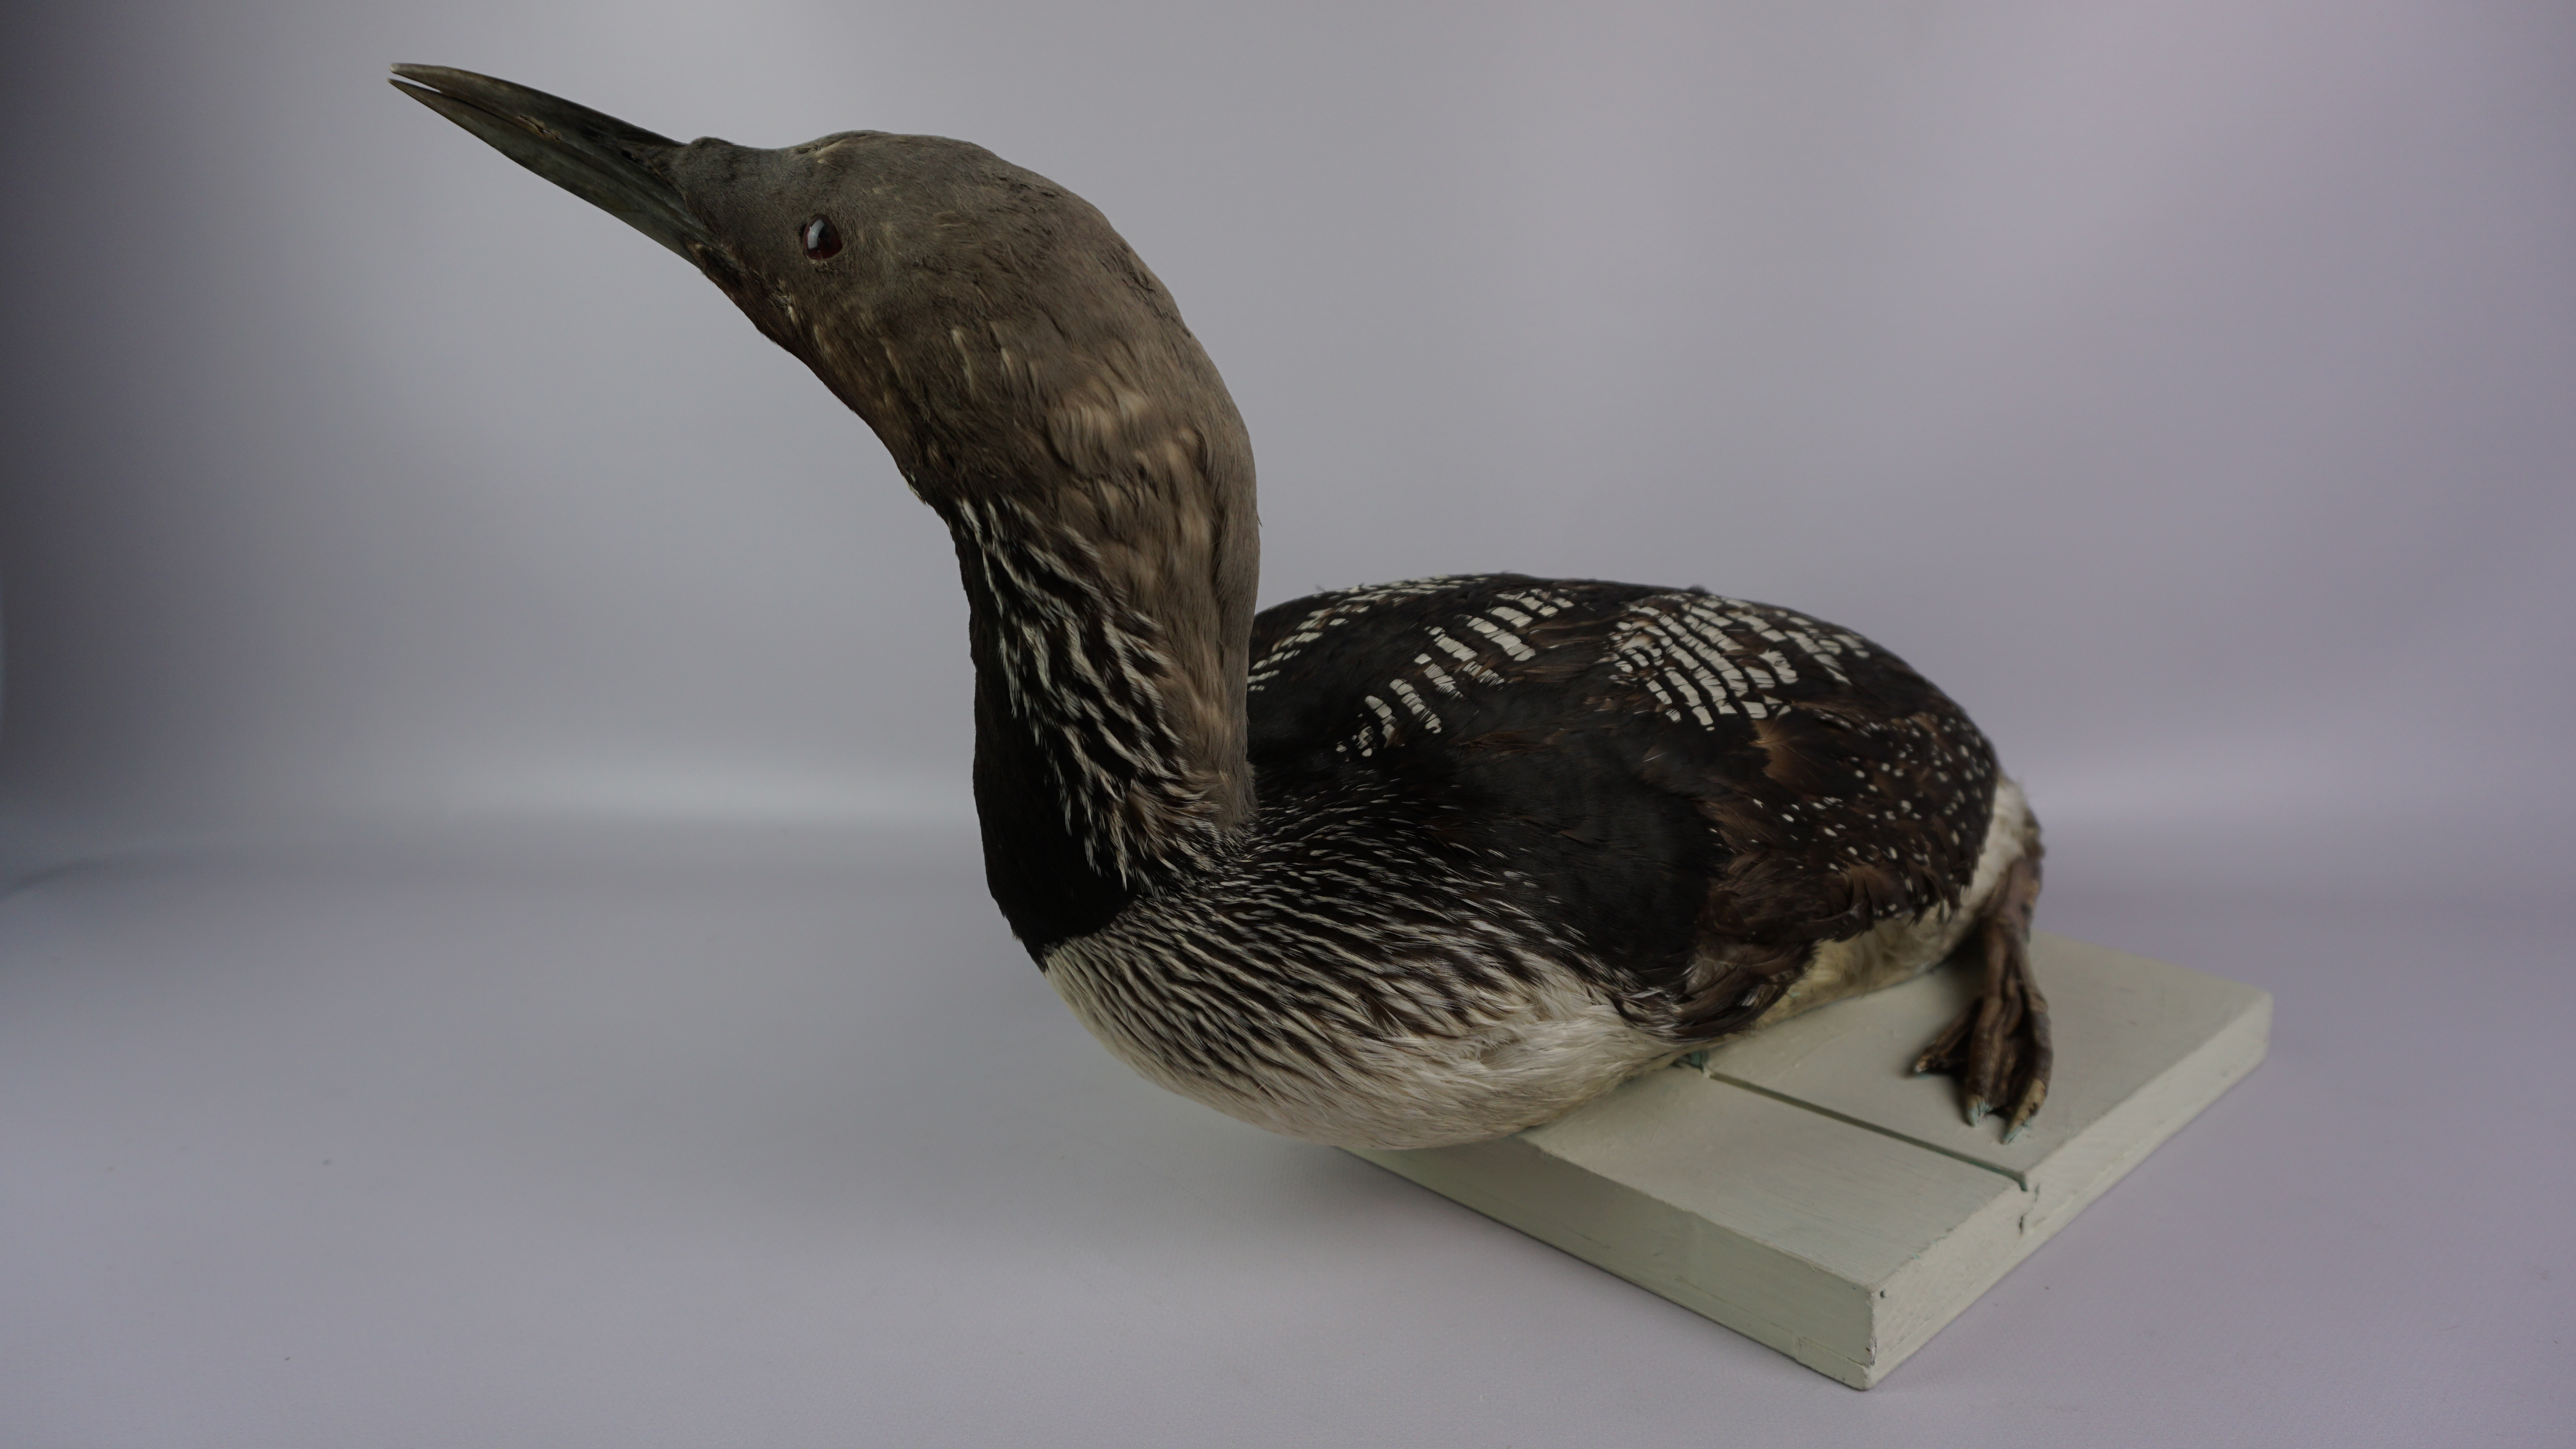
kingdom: Animalia
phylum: Chordata
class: Aves
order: Gaviiformes
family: Gaviidae
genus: Gavia
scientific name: Gavia arctica
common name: Black-throated loon
